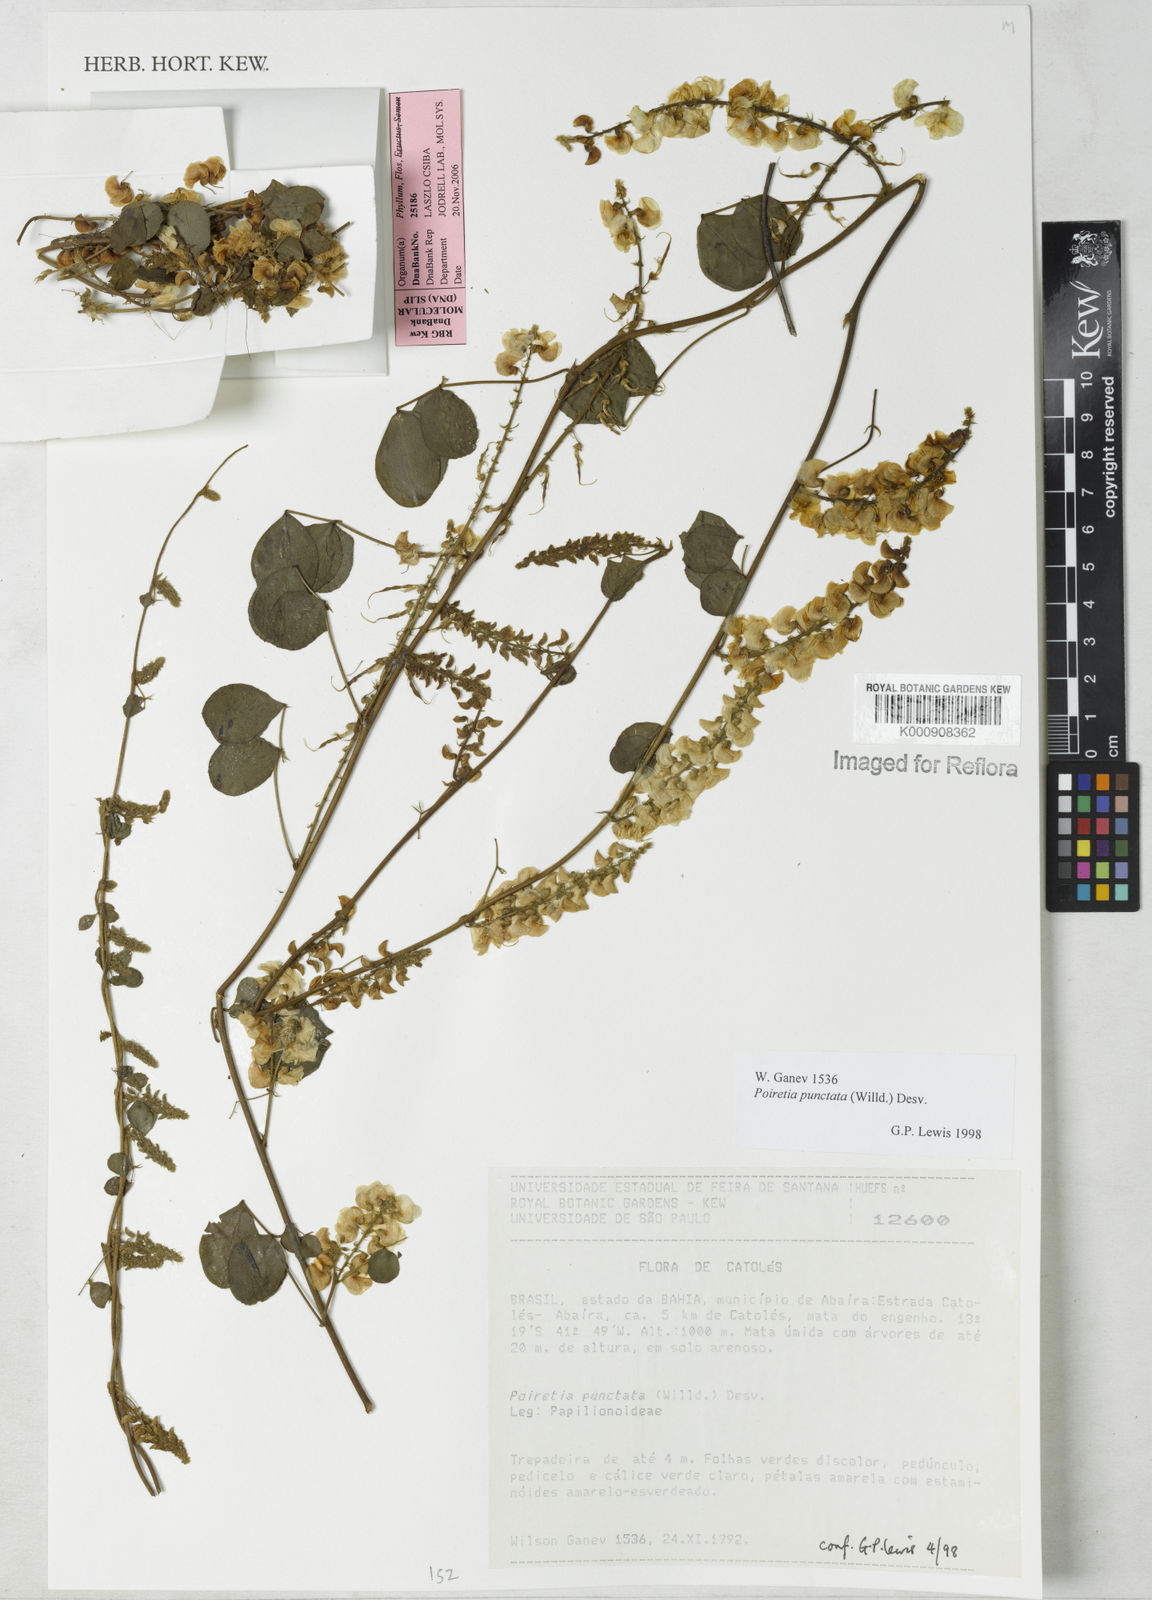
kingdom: Plantae
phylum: Tracheophyta
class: Magnoliopsida
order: Fabales
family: Fabaceae
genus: Poiretia
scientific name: Poiretia punctata
